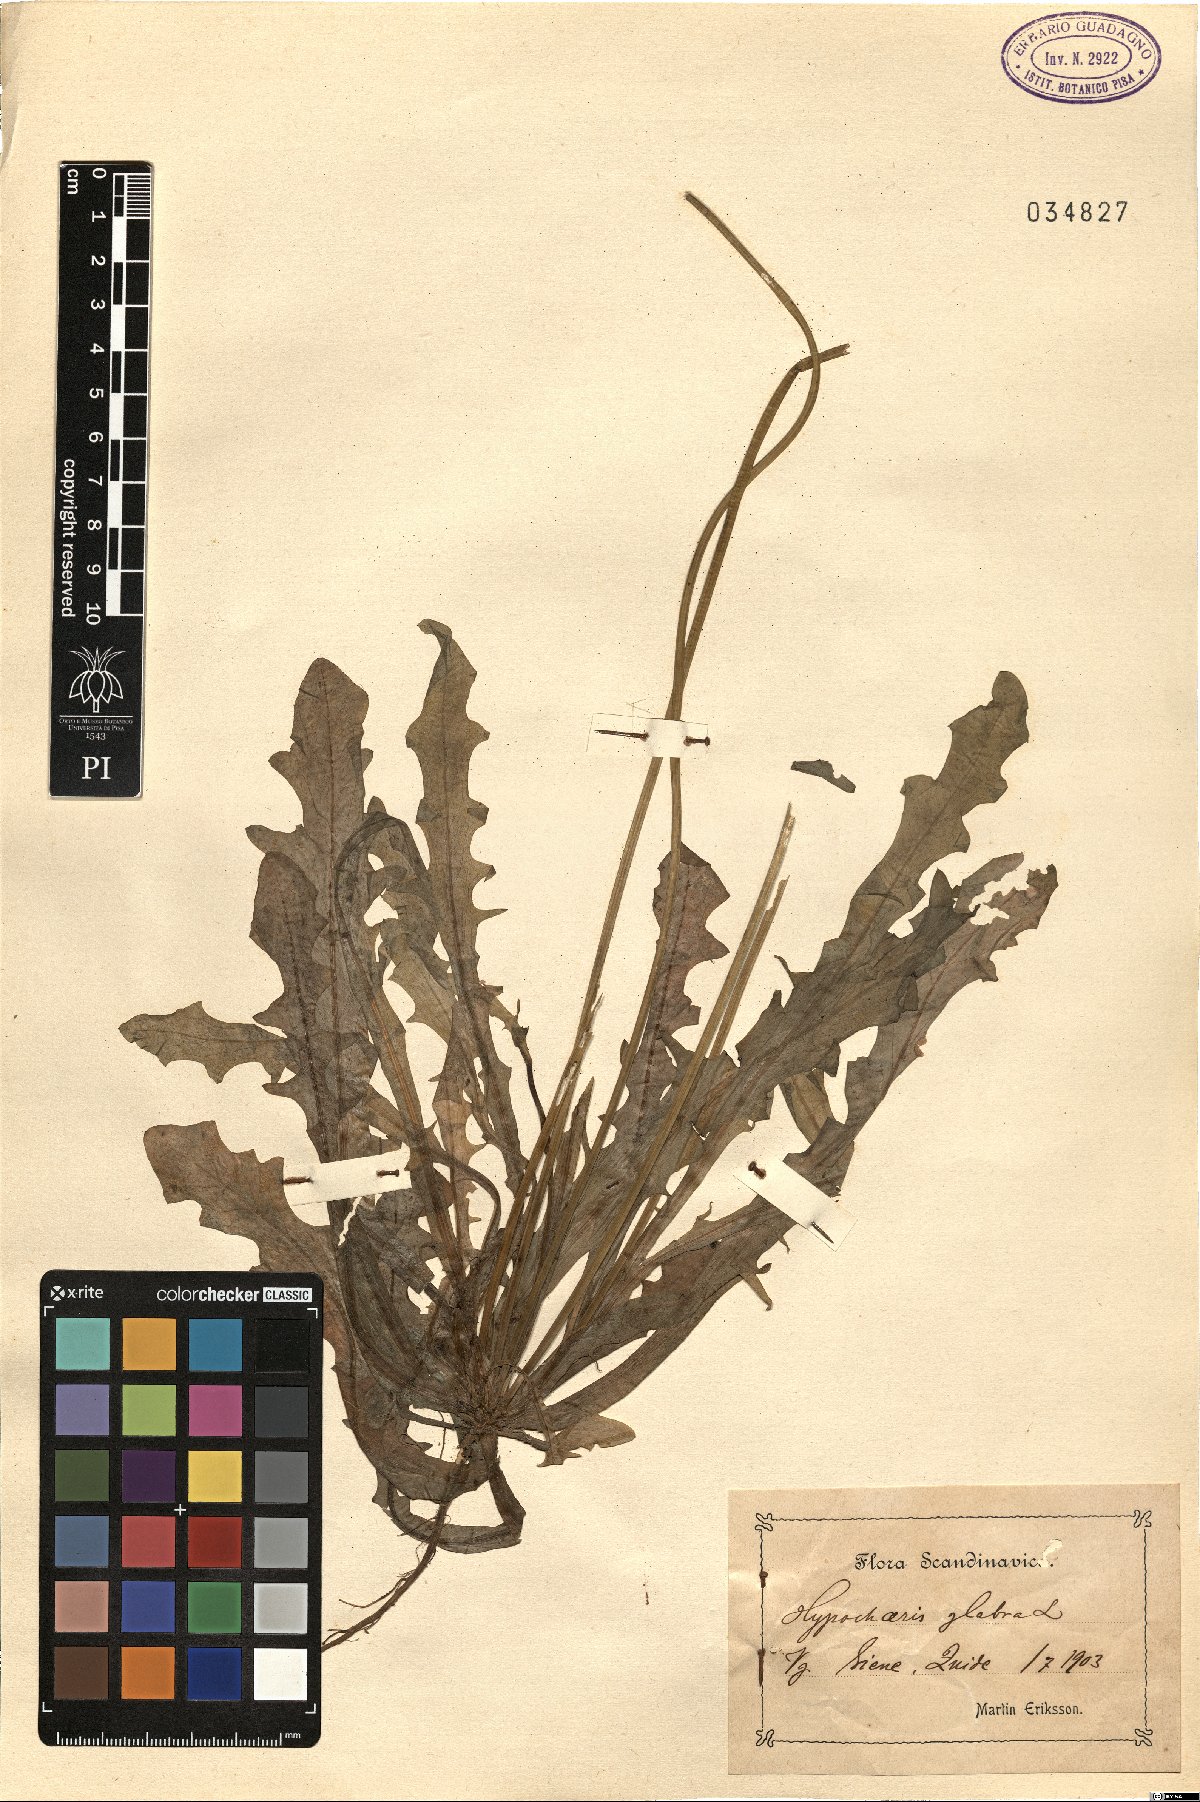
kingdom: Plantae
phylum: Tracheophyta
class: Magnoliopsida
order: Asterales
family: Asteraceae
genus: Hypochaeris
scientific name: Hypochaeris glabra
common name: Smooth catsear
